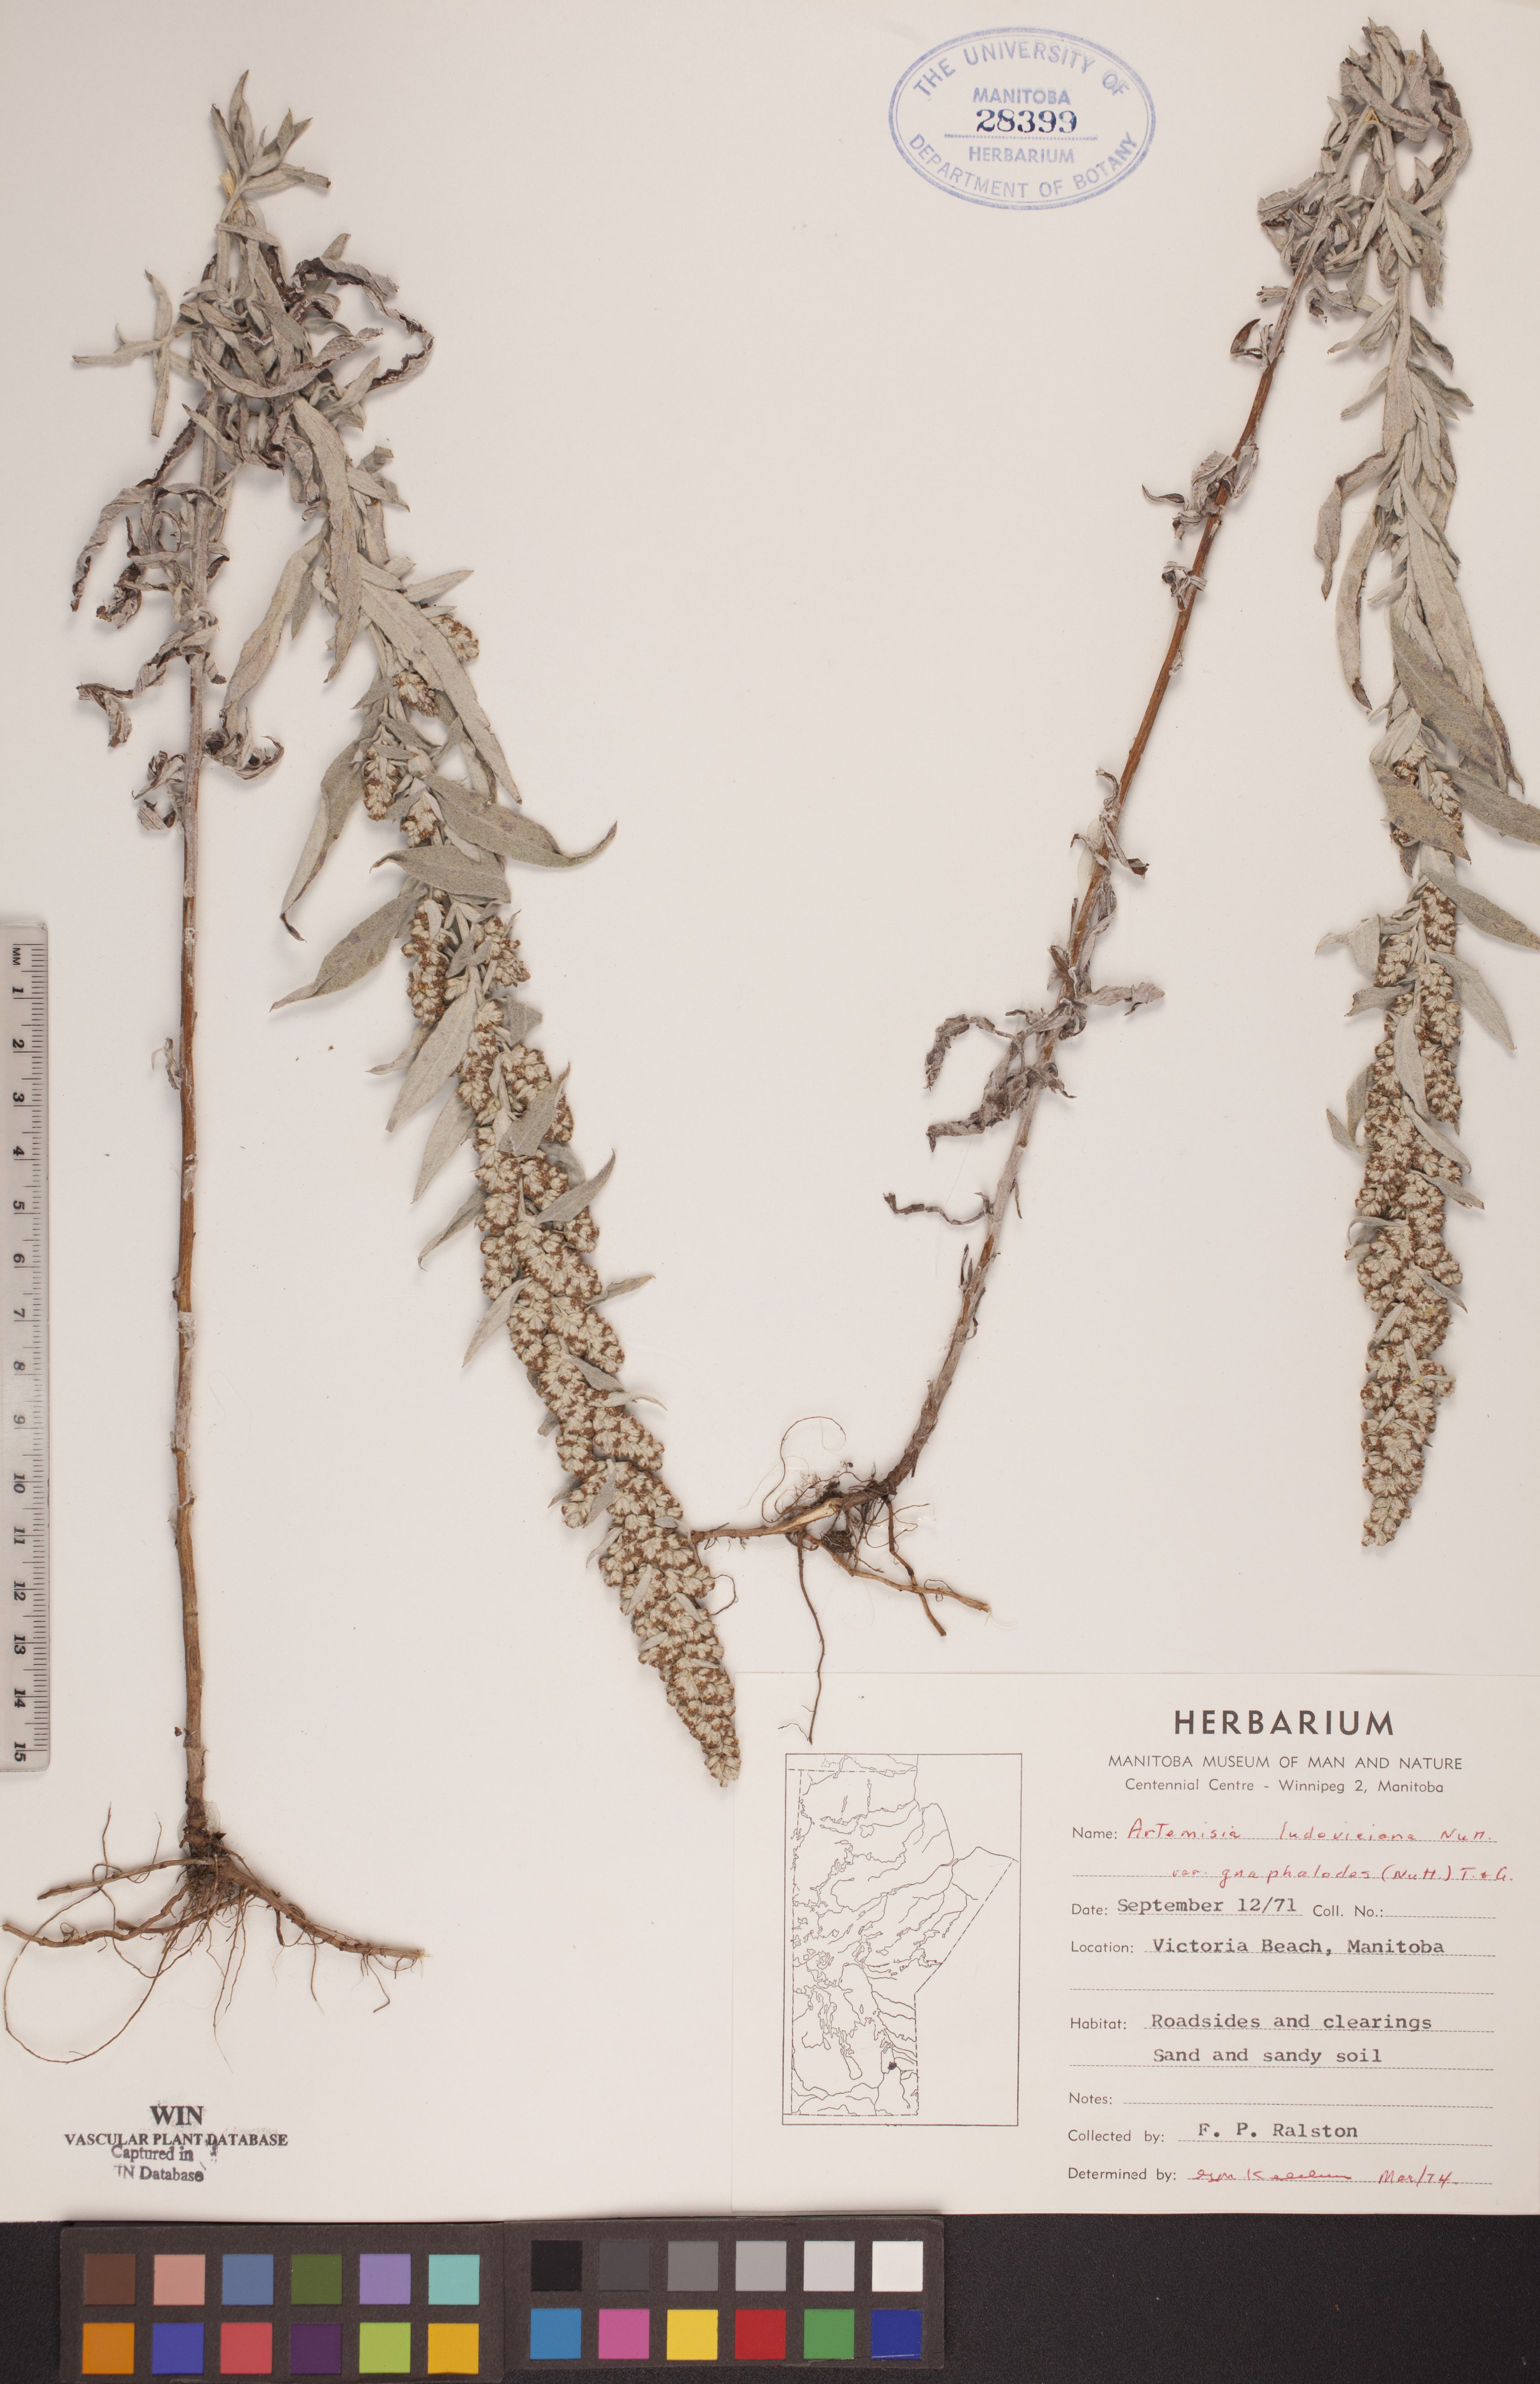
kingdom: Plantae
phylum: Tracheophyta
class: Magnoliopsida
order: Asterales
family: Asteraceae
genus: Artemisia
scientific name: Artemisia ludoviciana
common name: Western mugwort
